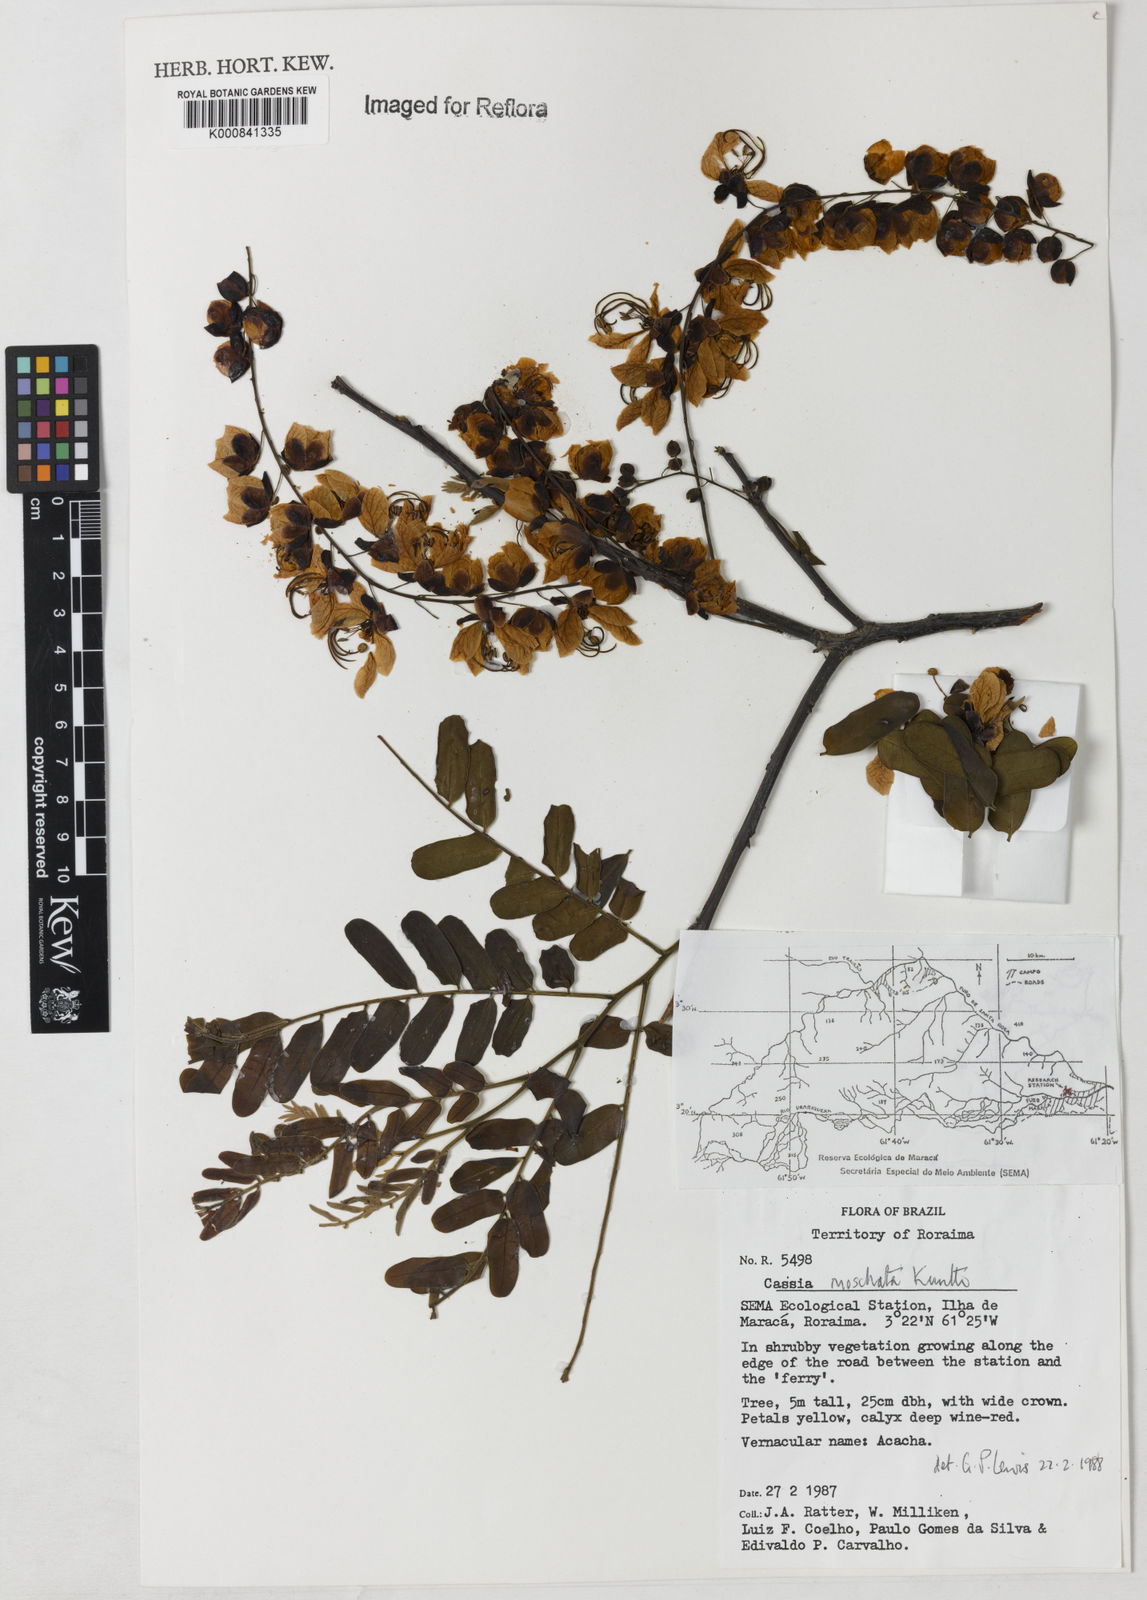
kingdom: Plantae
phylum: Tracheophyta
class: Magnoliopsida
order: Fabales
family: Fabaceae
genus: Cassia
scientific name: Cassia moschata
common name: Bronze shower tree
